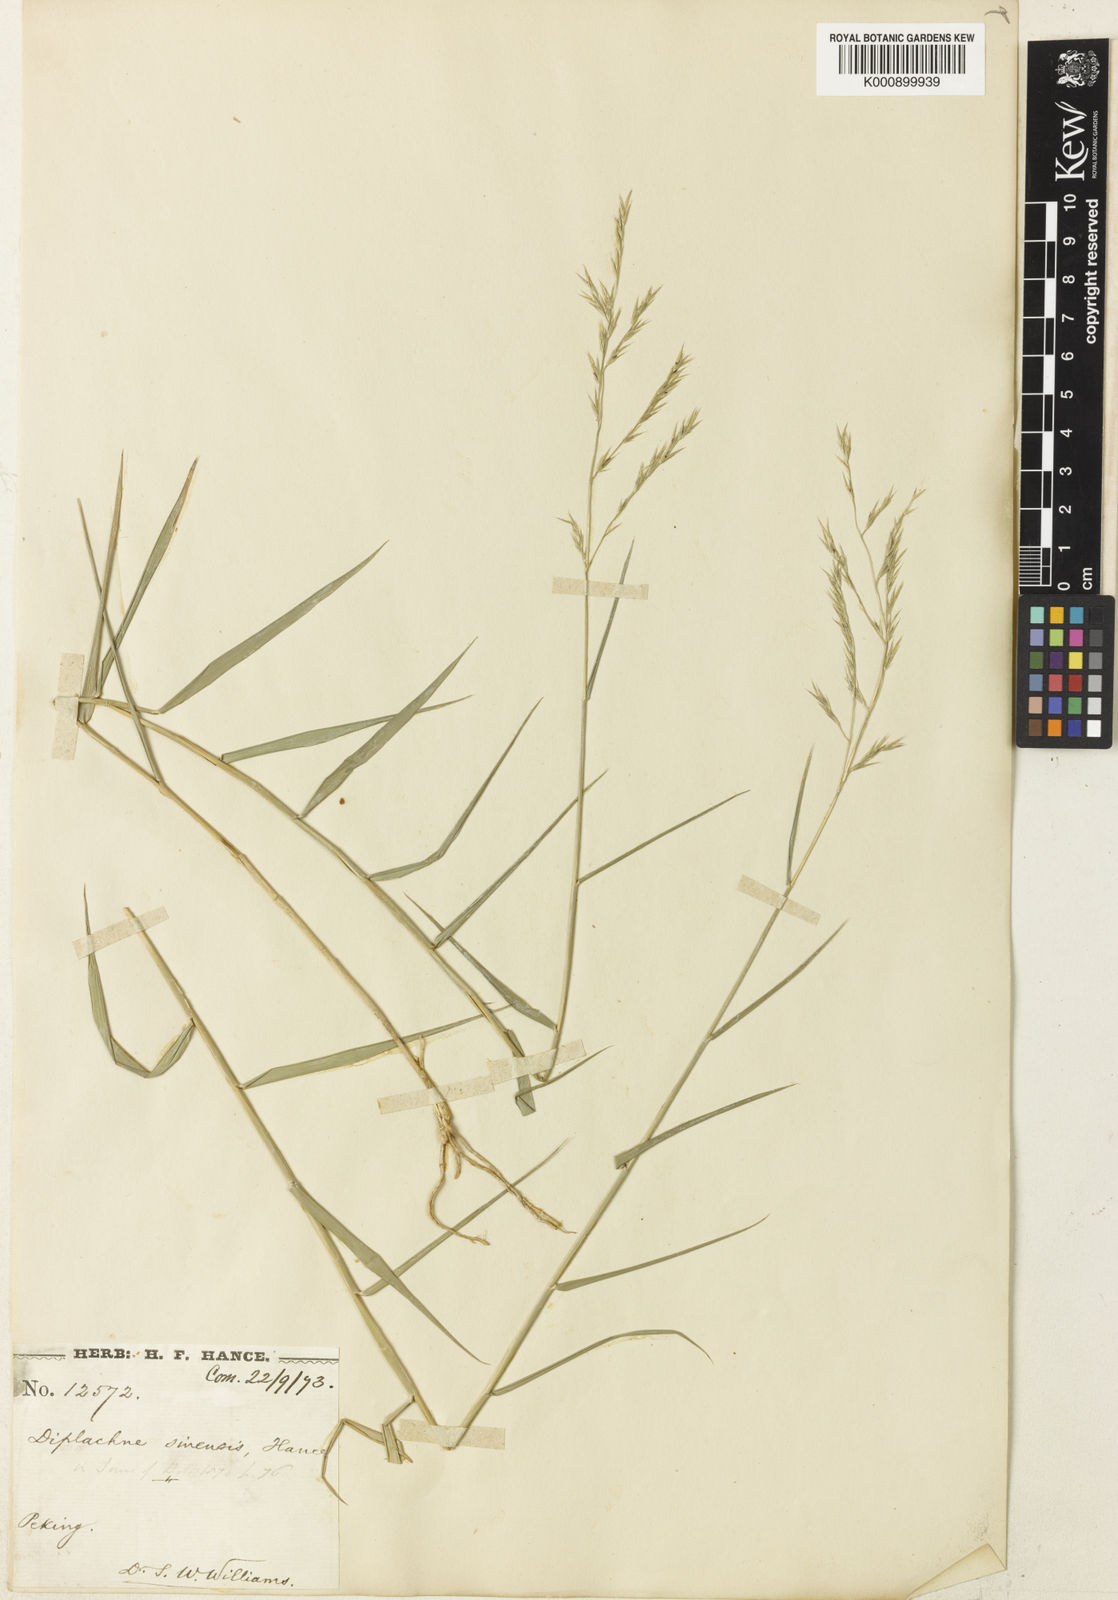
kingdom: Plantae
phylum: Tracheophyta
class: Liliopsida
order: Poales
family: Poaceae
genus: Cleistogenes
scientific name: Cleistogenes hancei
